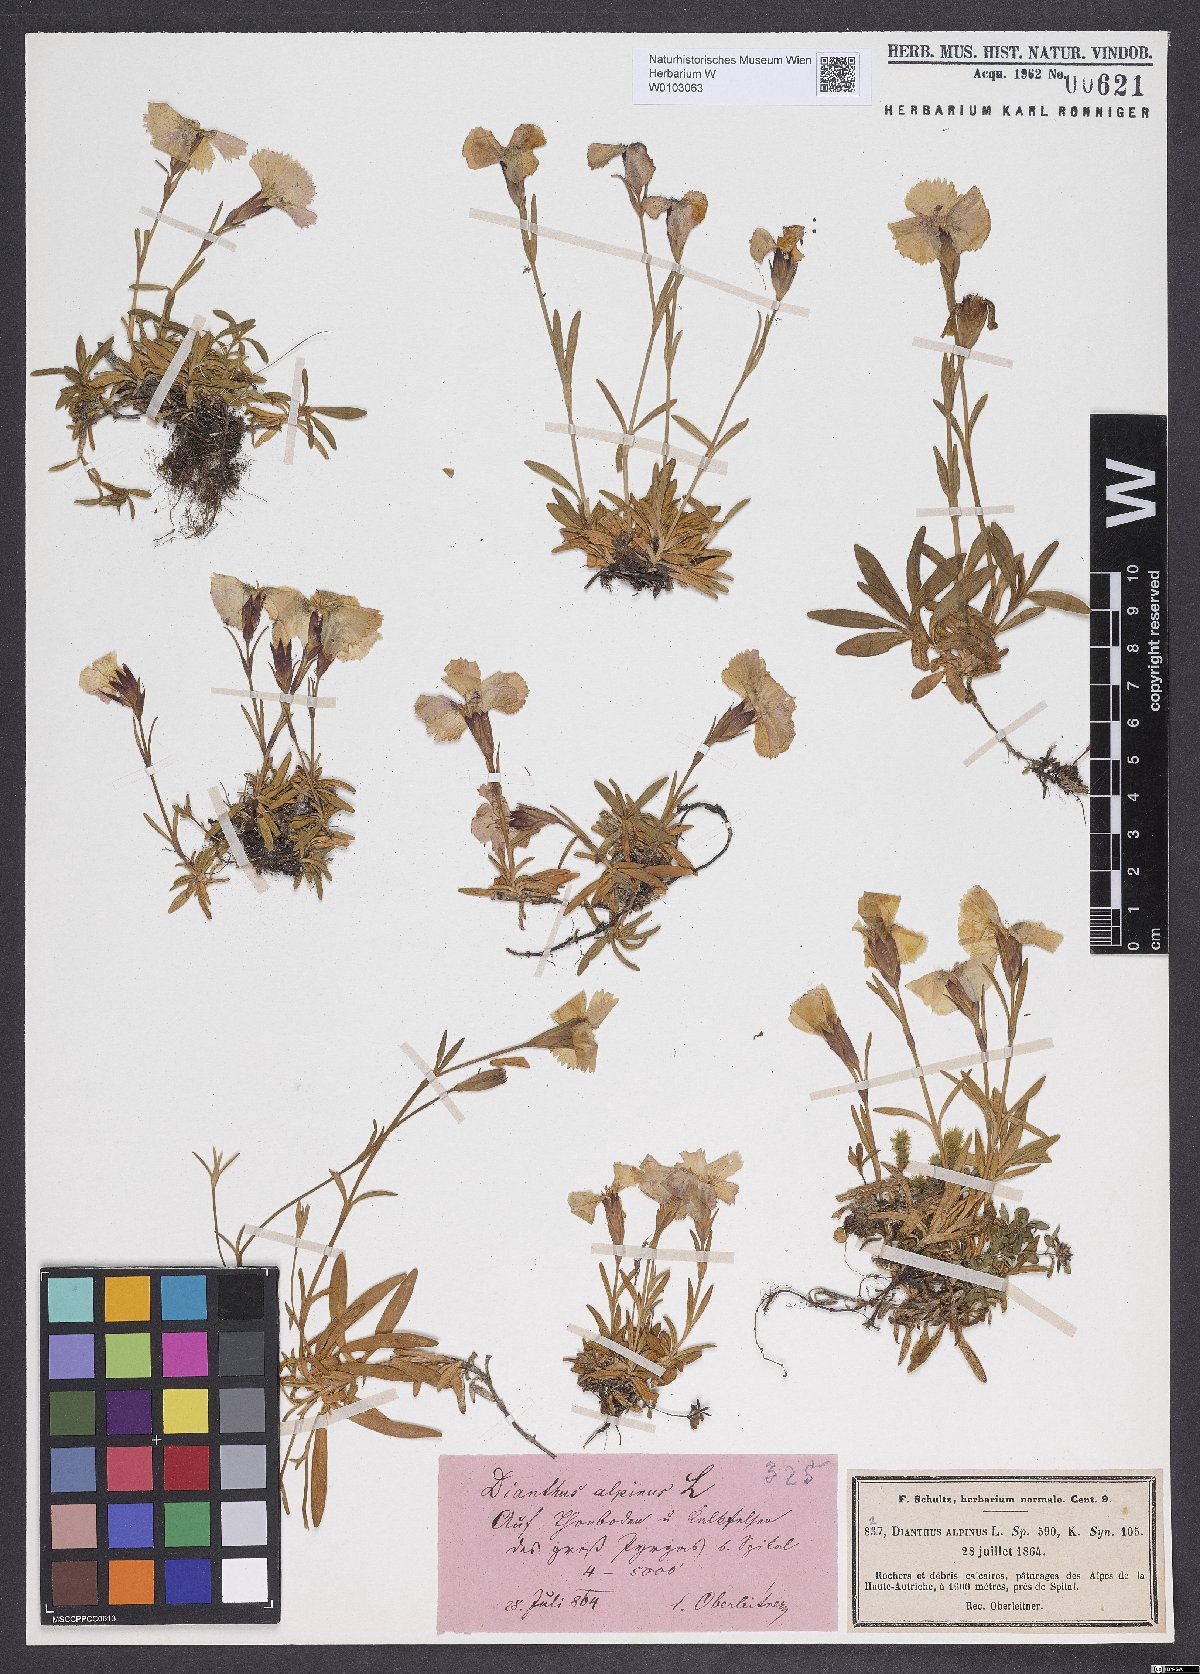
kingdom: Plantae
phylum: Tracheophyta
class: Magnoliopsida
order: Caryophyllales
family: Caryophyllaceae
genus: Dianthus
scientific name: Dianthus alpinus
